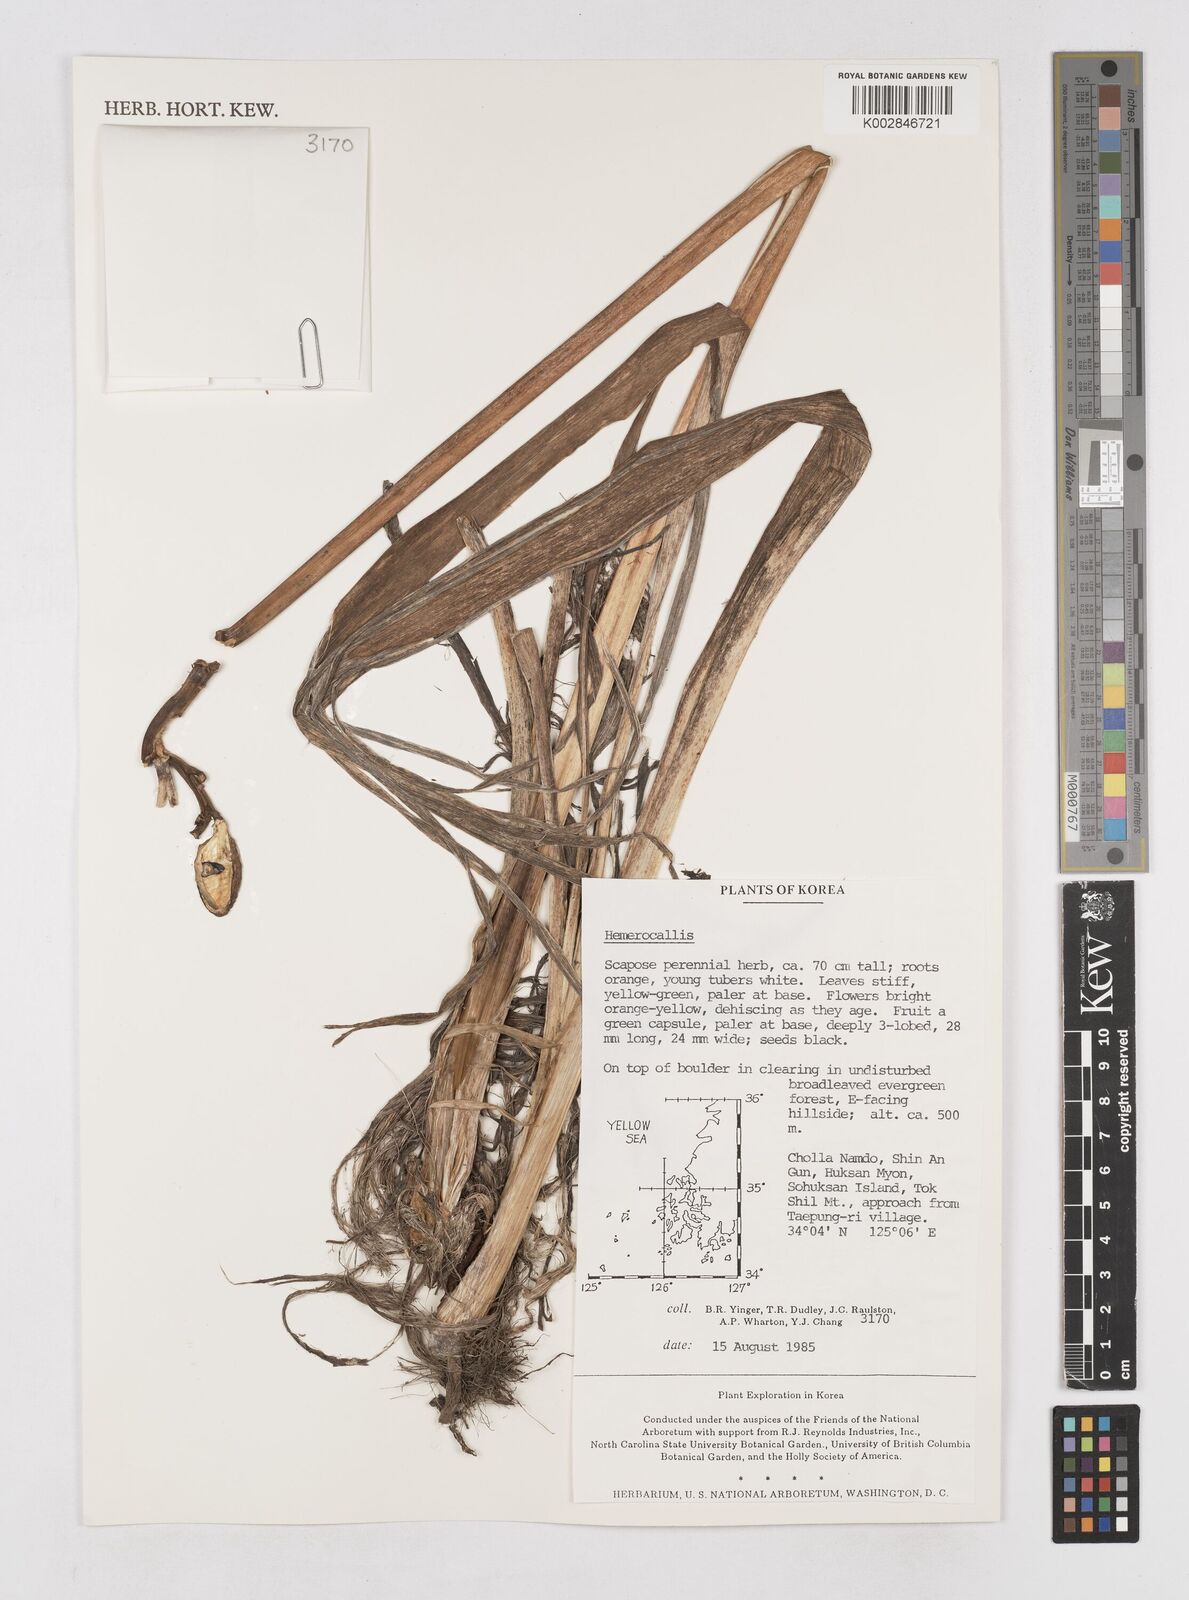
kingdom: Plantae
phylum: Tracheophyta
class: Liliopsida
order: Asparagales
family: Asphodelaceae
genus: Hemerocallis
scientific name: Hemerocallis
